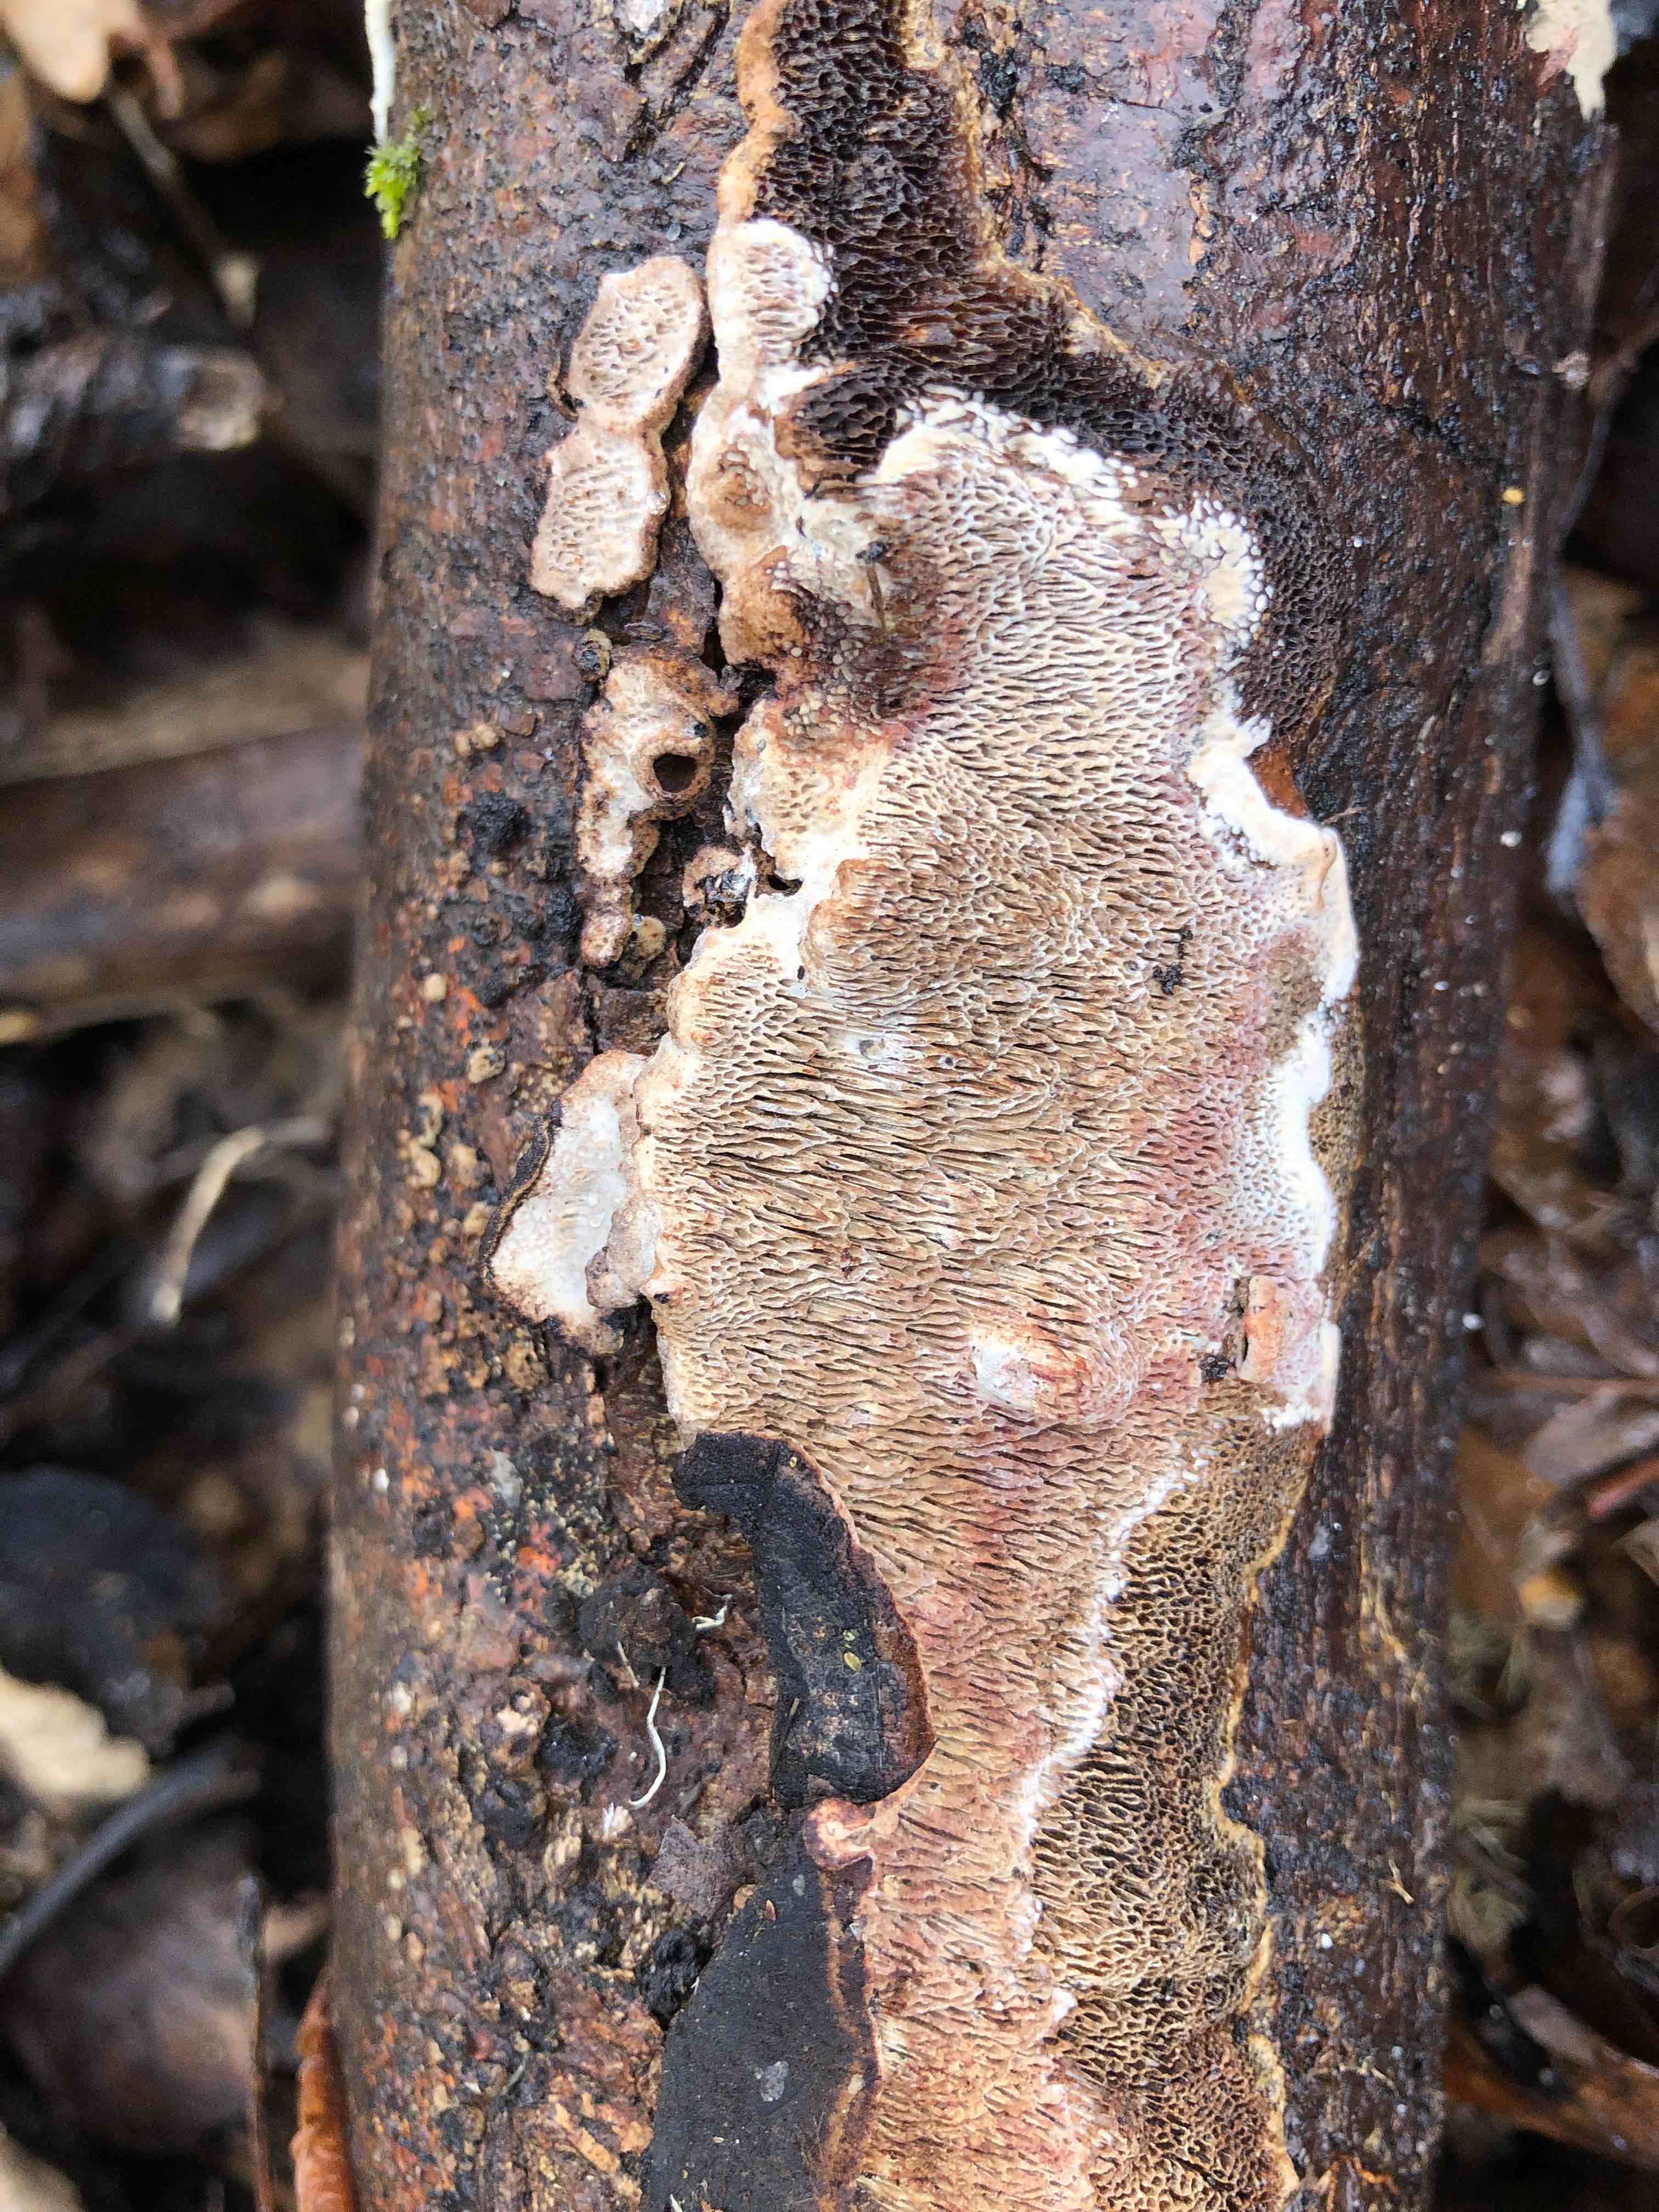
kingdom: Fungi
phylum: Basidiomycota
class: Agaricomycetes
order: Polyporales
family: Polyporaceae
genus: Podofomes
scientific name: Podofomes mollis
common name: blød begporesvamp
